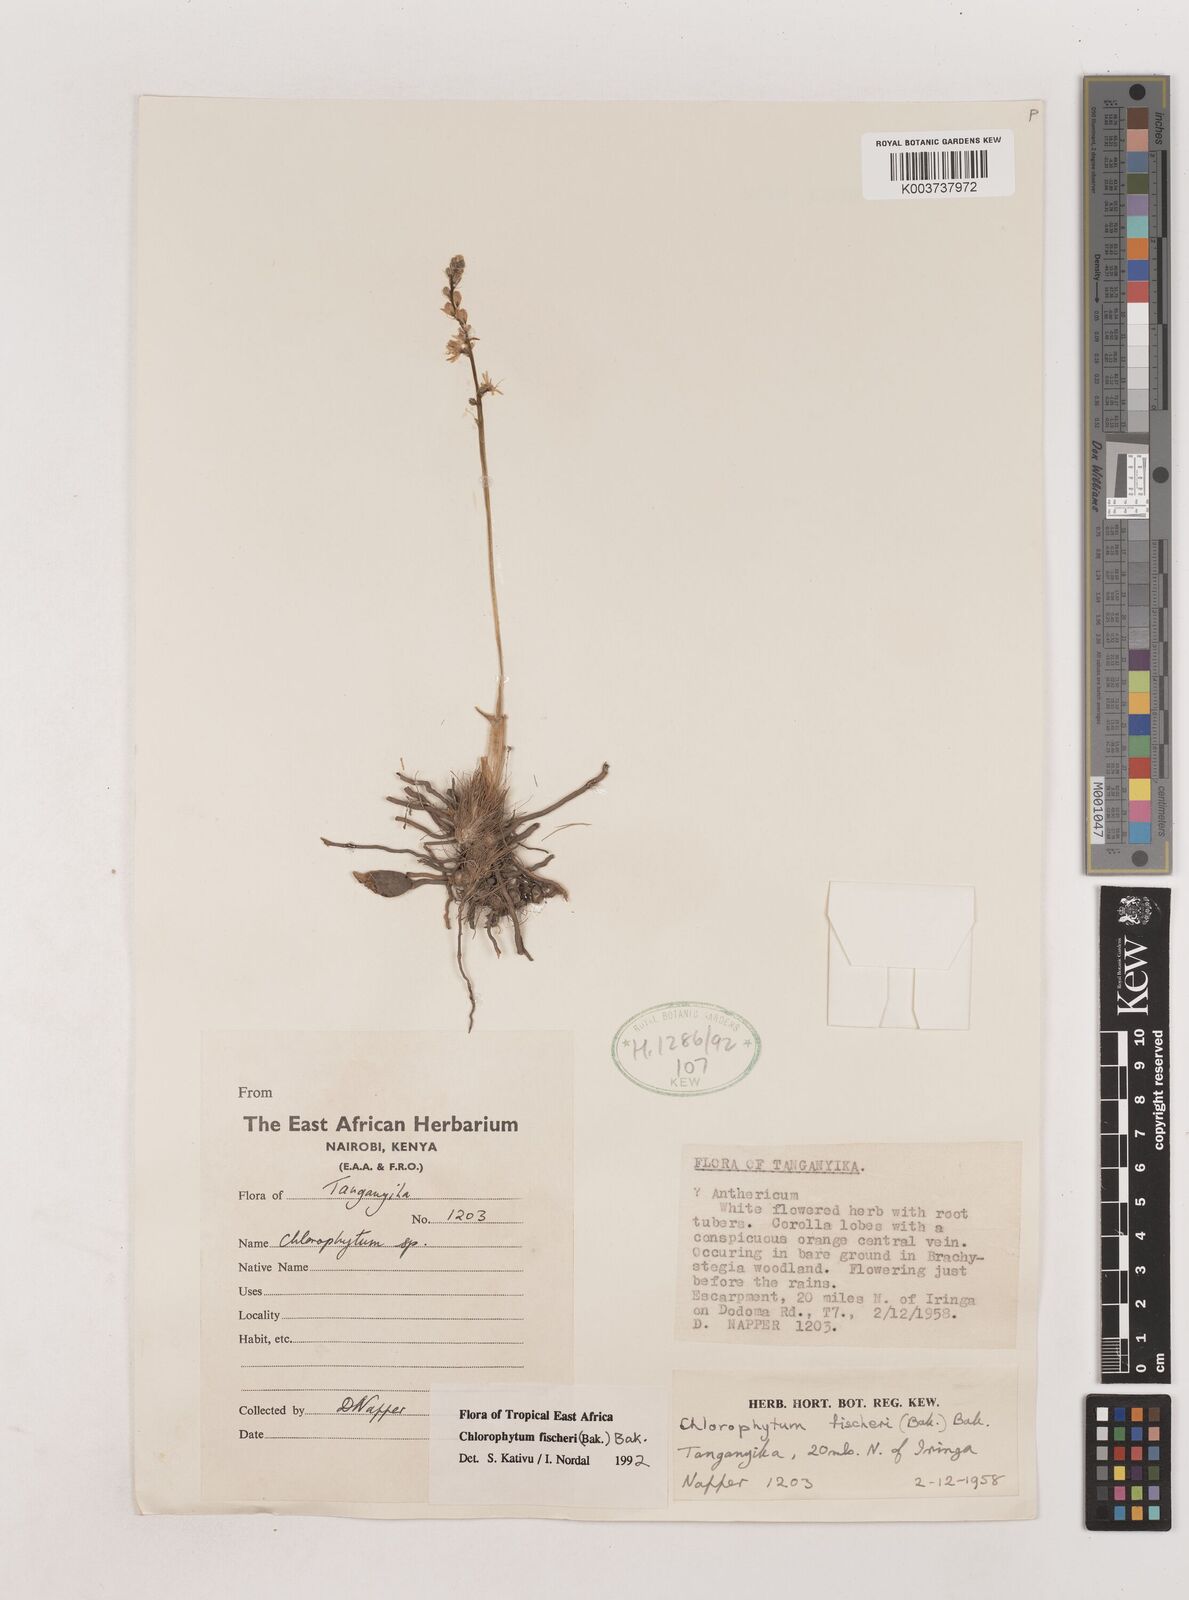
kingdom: Plantae
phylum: Tracheophyta
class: Liliopsida
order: Asparagales
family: Asparagaceae
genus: Chlorophytum
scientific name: Chlorophytum fischeri
